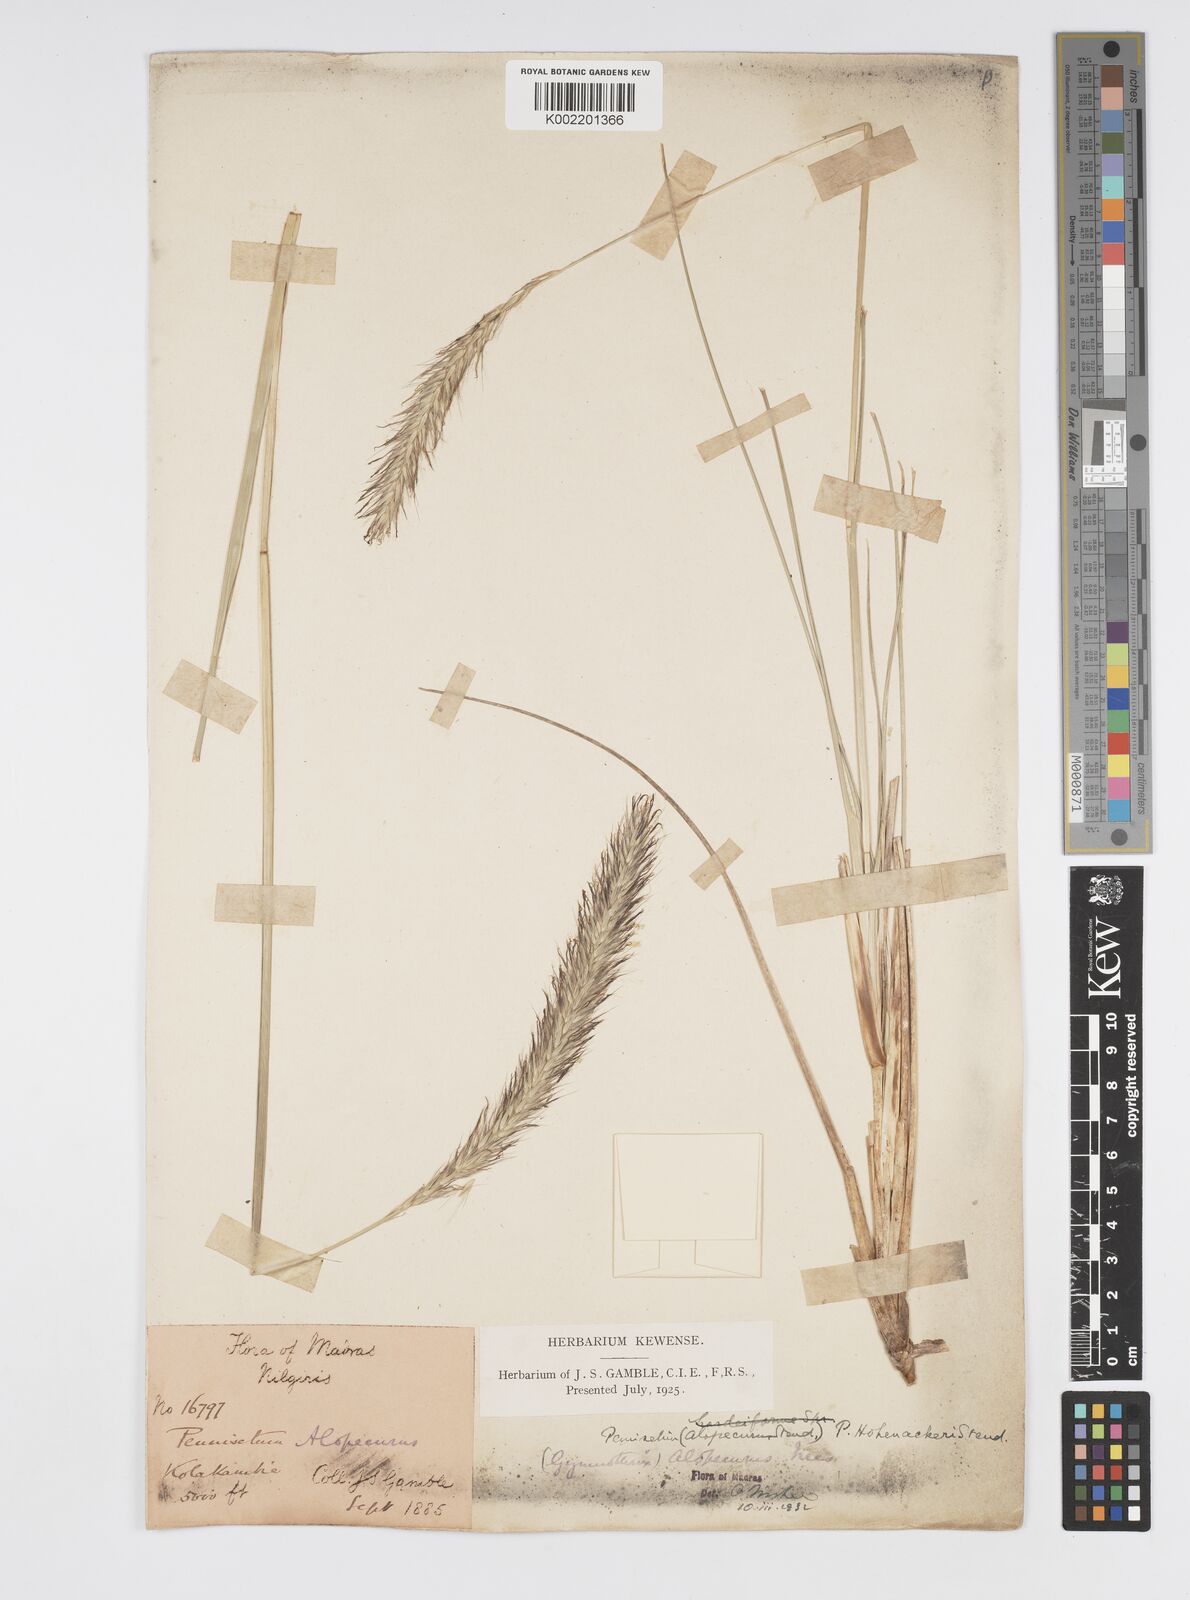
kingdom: Plantae
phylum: Tracheophyta
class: Liliopsida
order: Poales
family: Poaceae
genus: Cenchrus
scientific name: Cenchrus hohenackeri
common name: Moya grass
